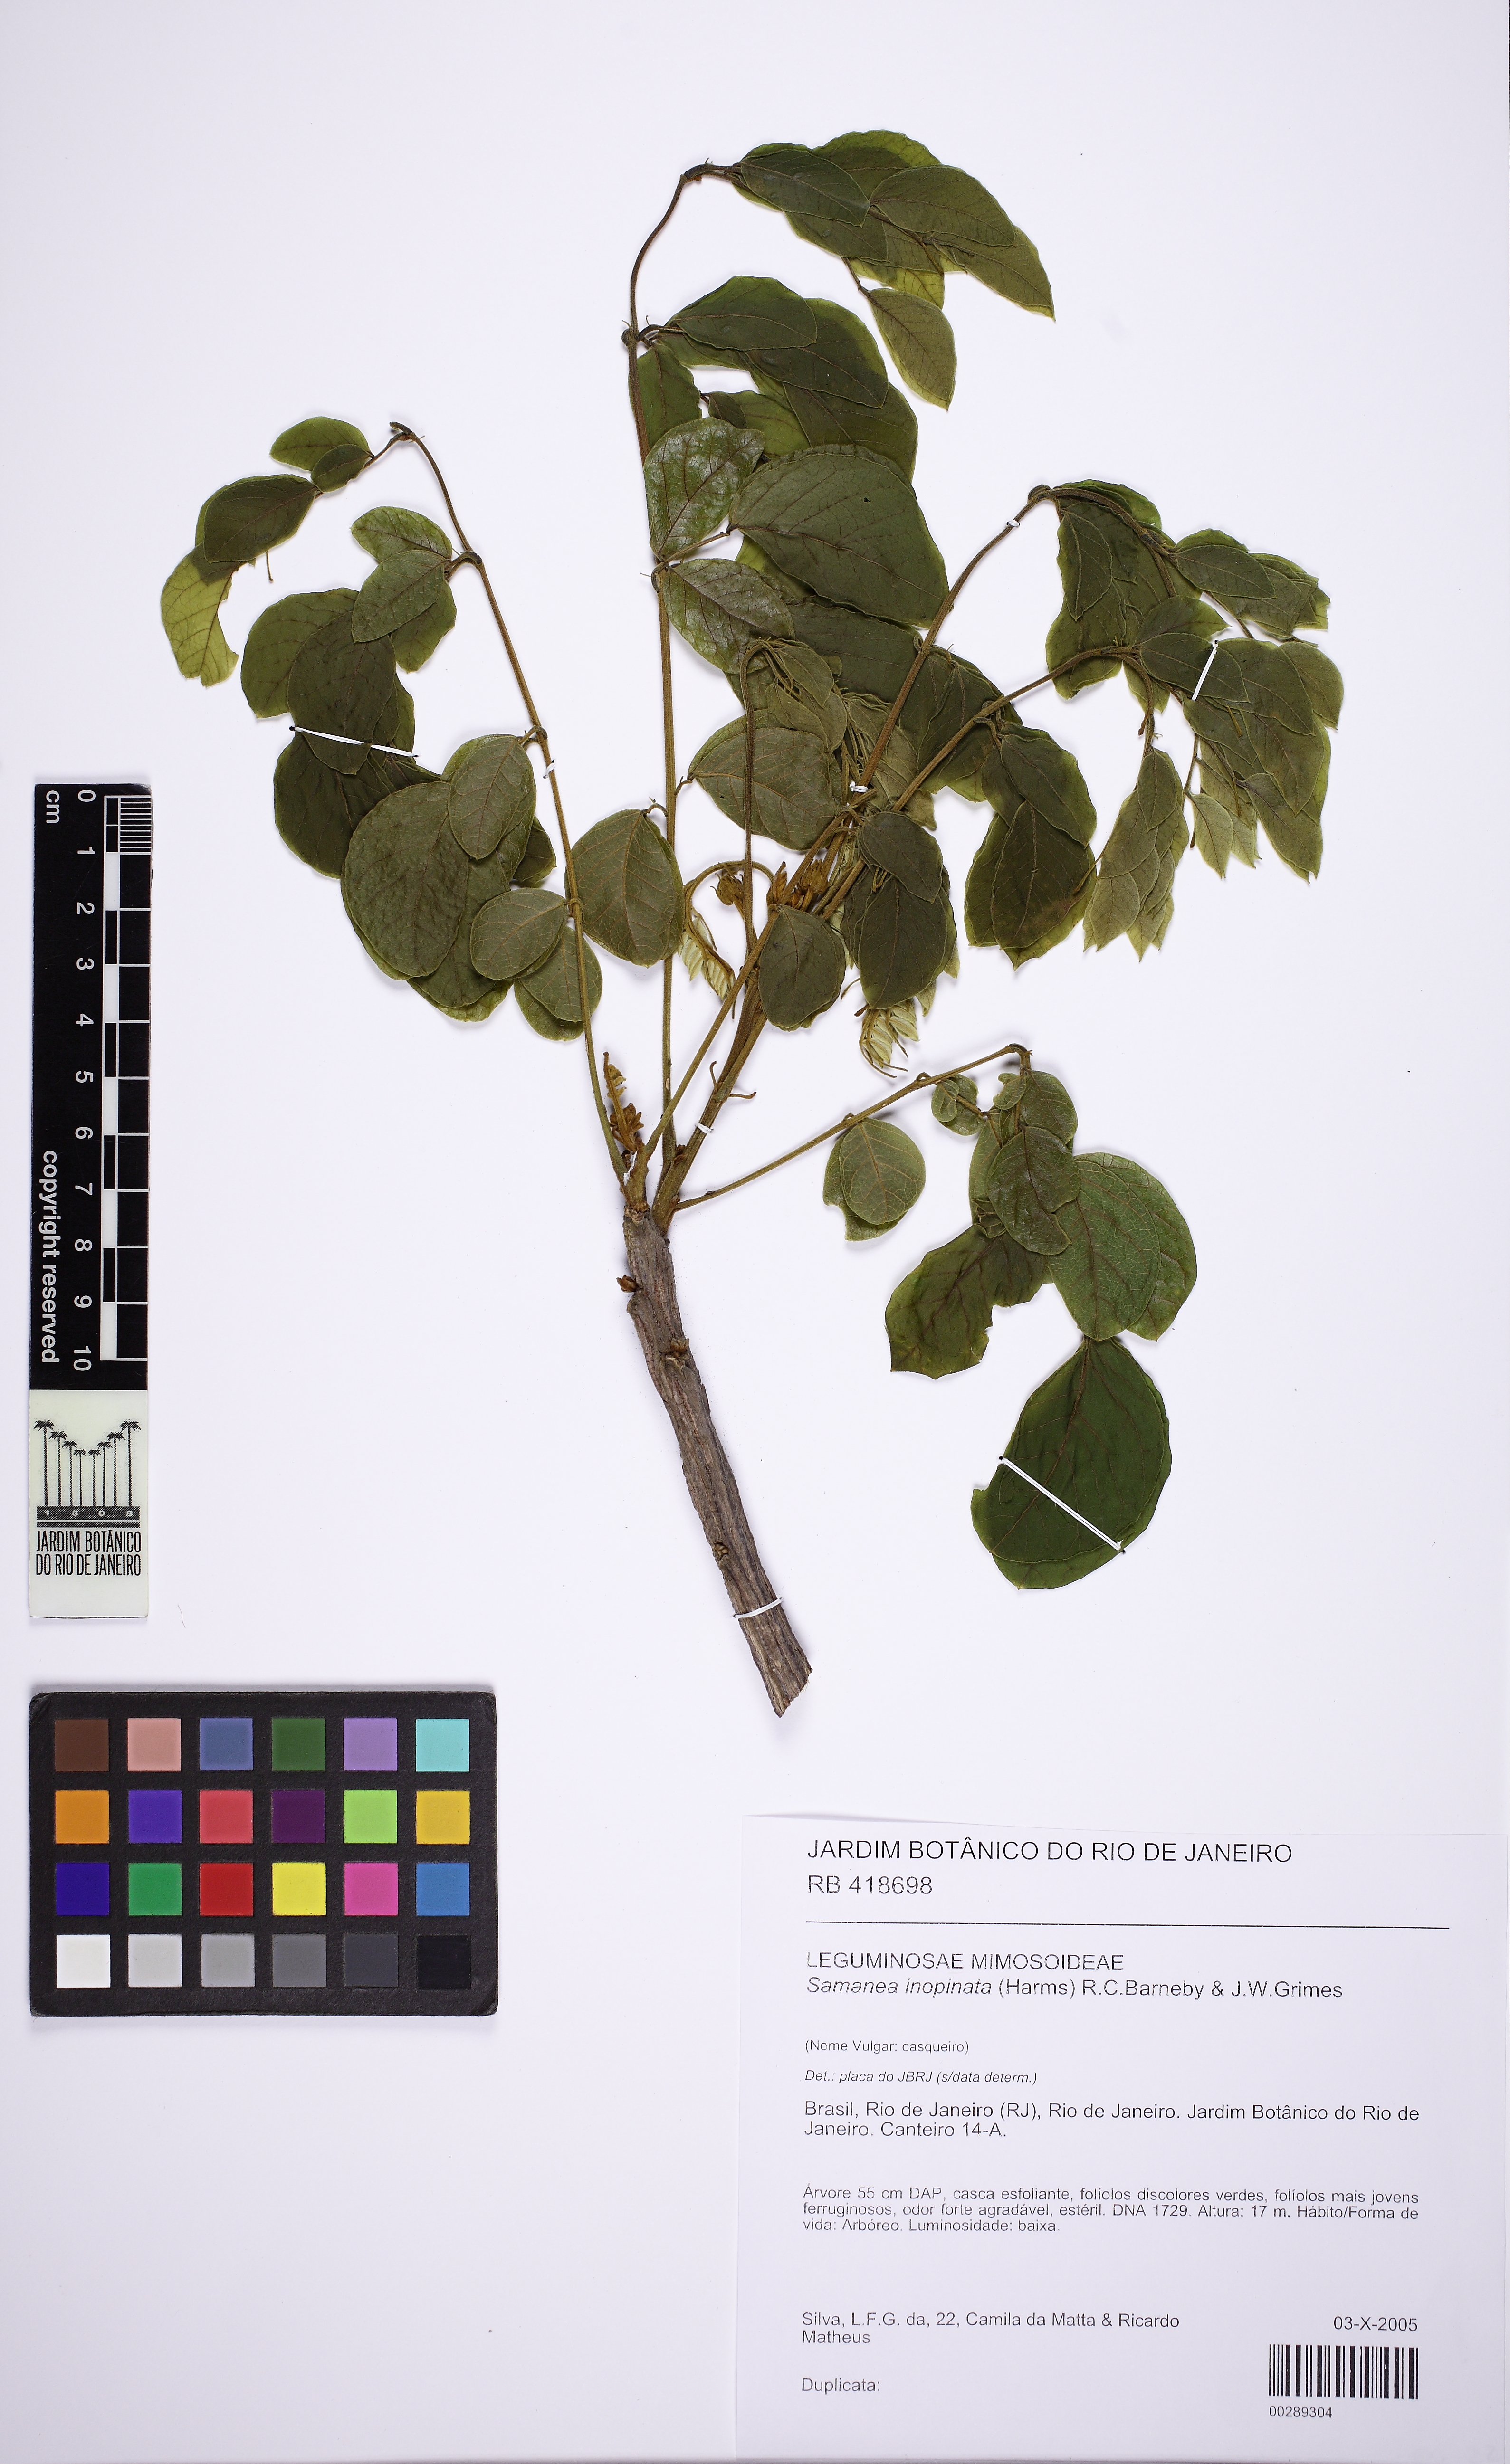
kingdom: Plantae
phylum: Tracheophyta
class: Magnoliopsida
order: Fabales
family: Fabaceae
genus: Samanea
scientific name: Samanea inopinata
